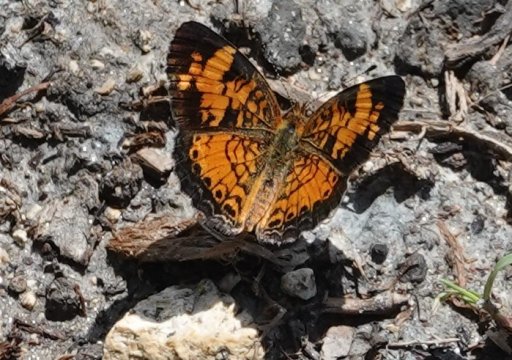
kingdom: Animalia
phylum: Arthropoda
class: Insecta
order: Lepidoptera
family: Nymphalidae
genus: Phyciodes
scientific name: Phyciodes tharos
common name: Pearl Crescent
